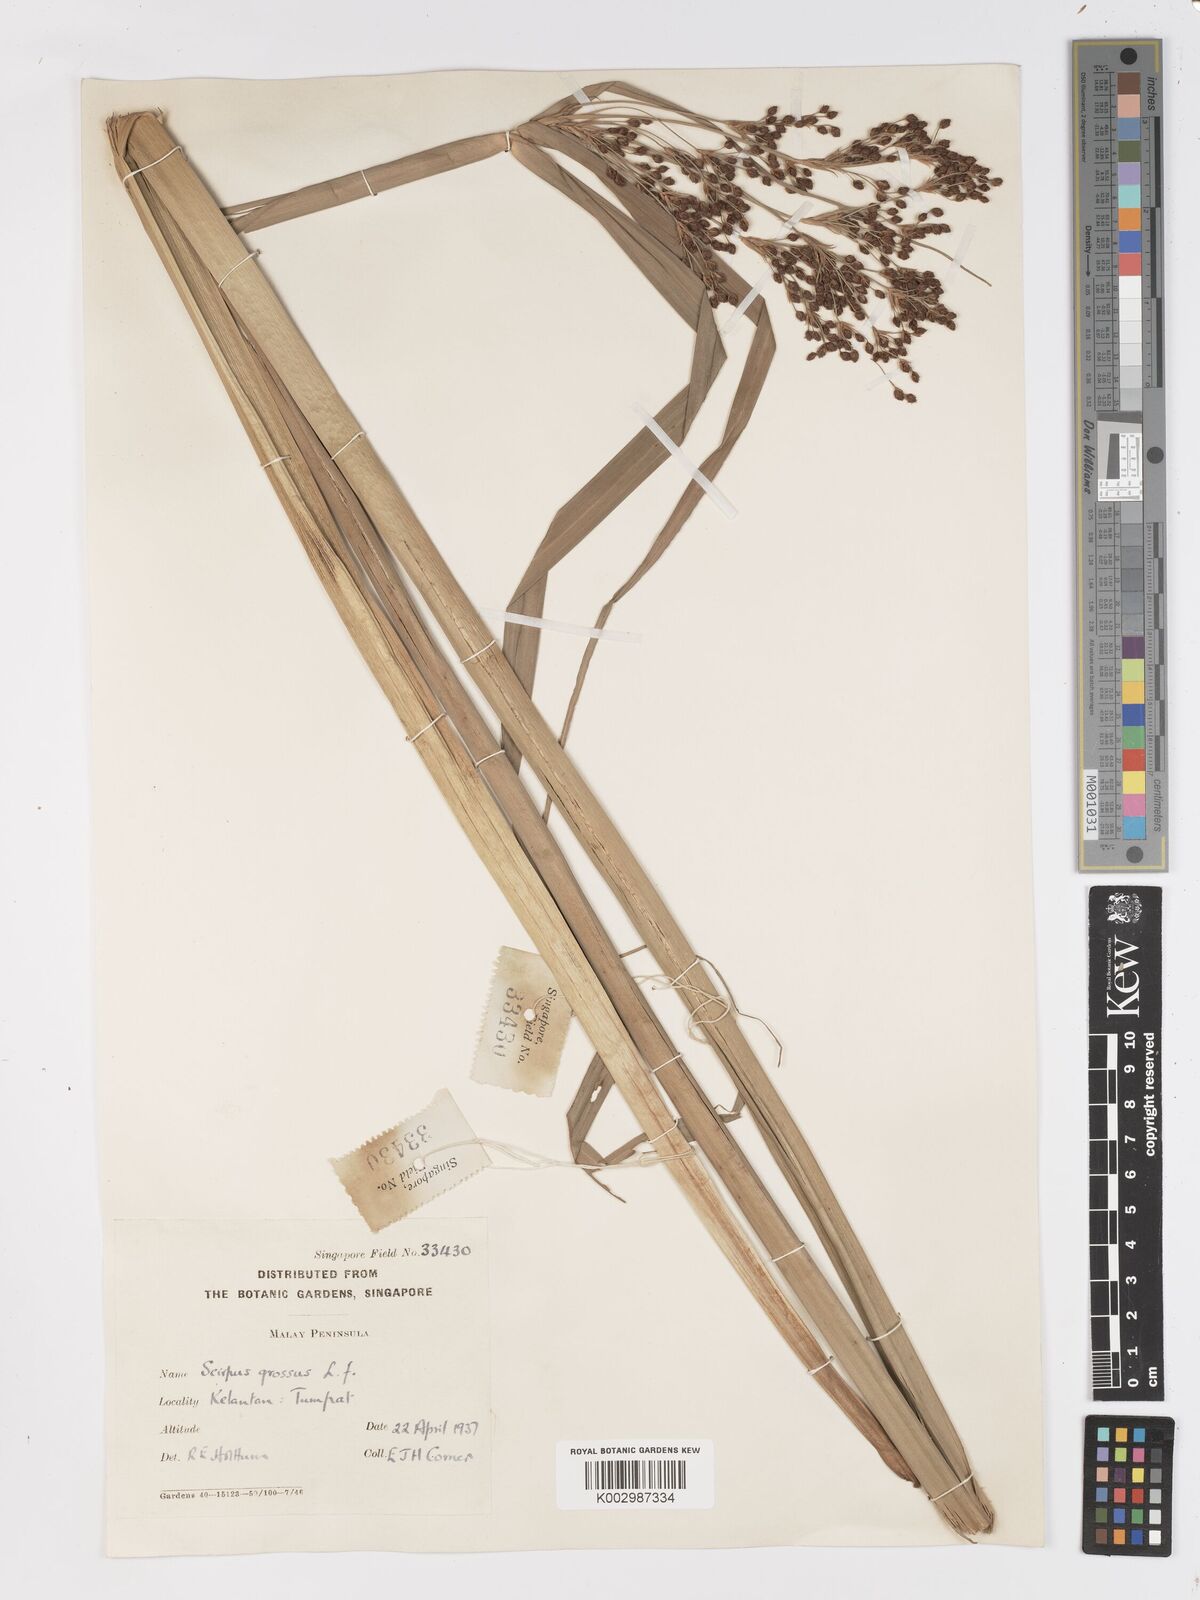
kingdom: Plantae
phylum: Tracheophyta
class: Liliopsida
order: Poales
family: Cyperaceae
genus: Actinoscirpus
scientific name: Actinoscirpus grossus
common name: Giant bur rush
